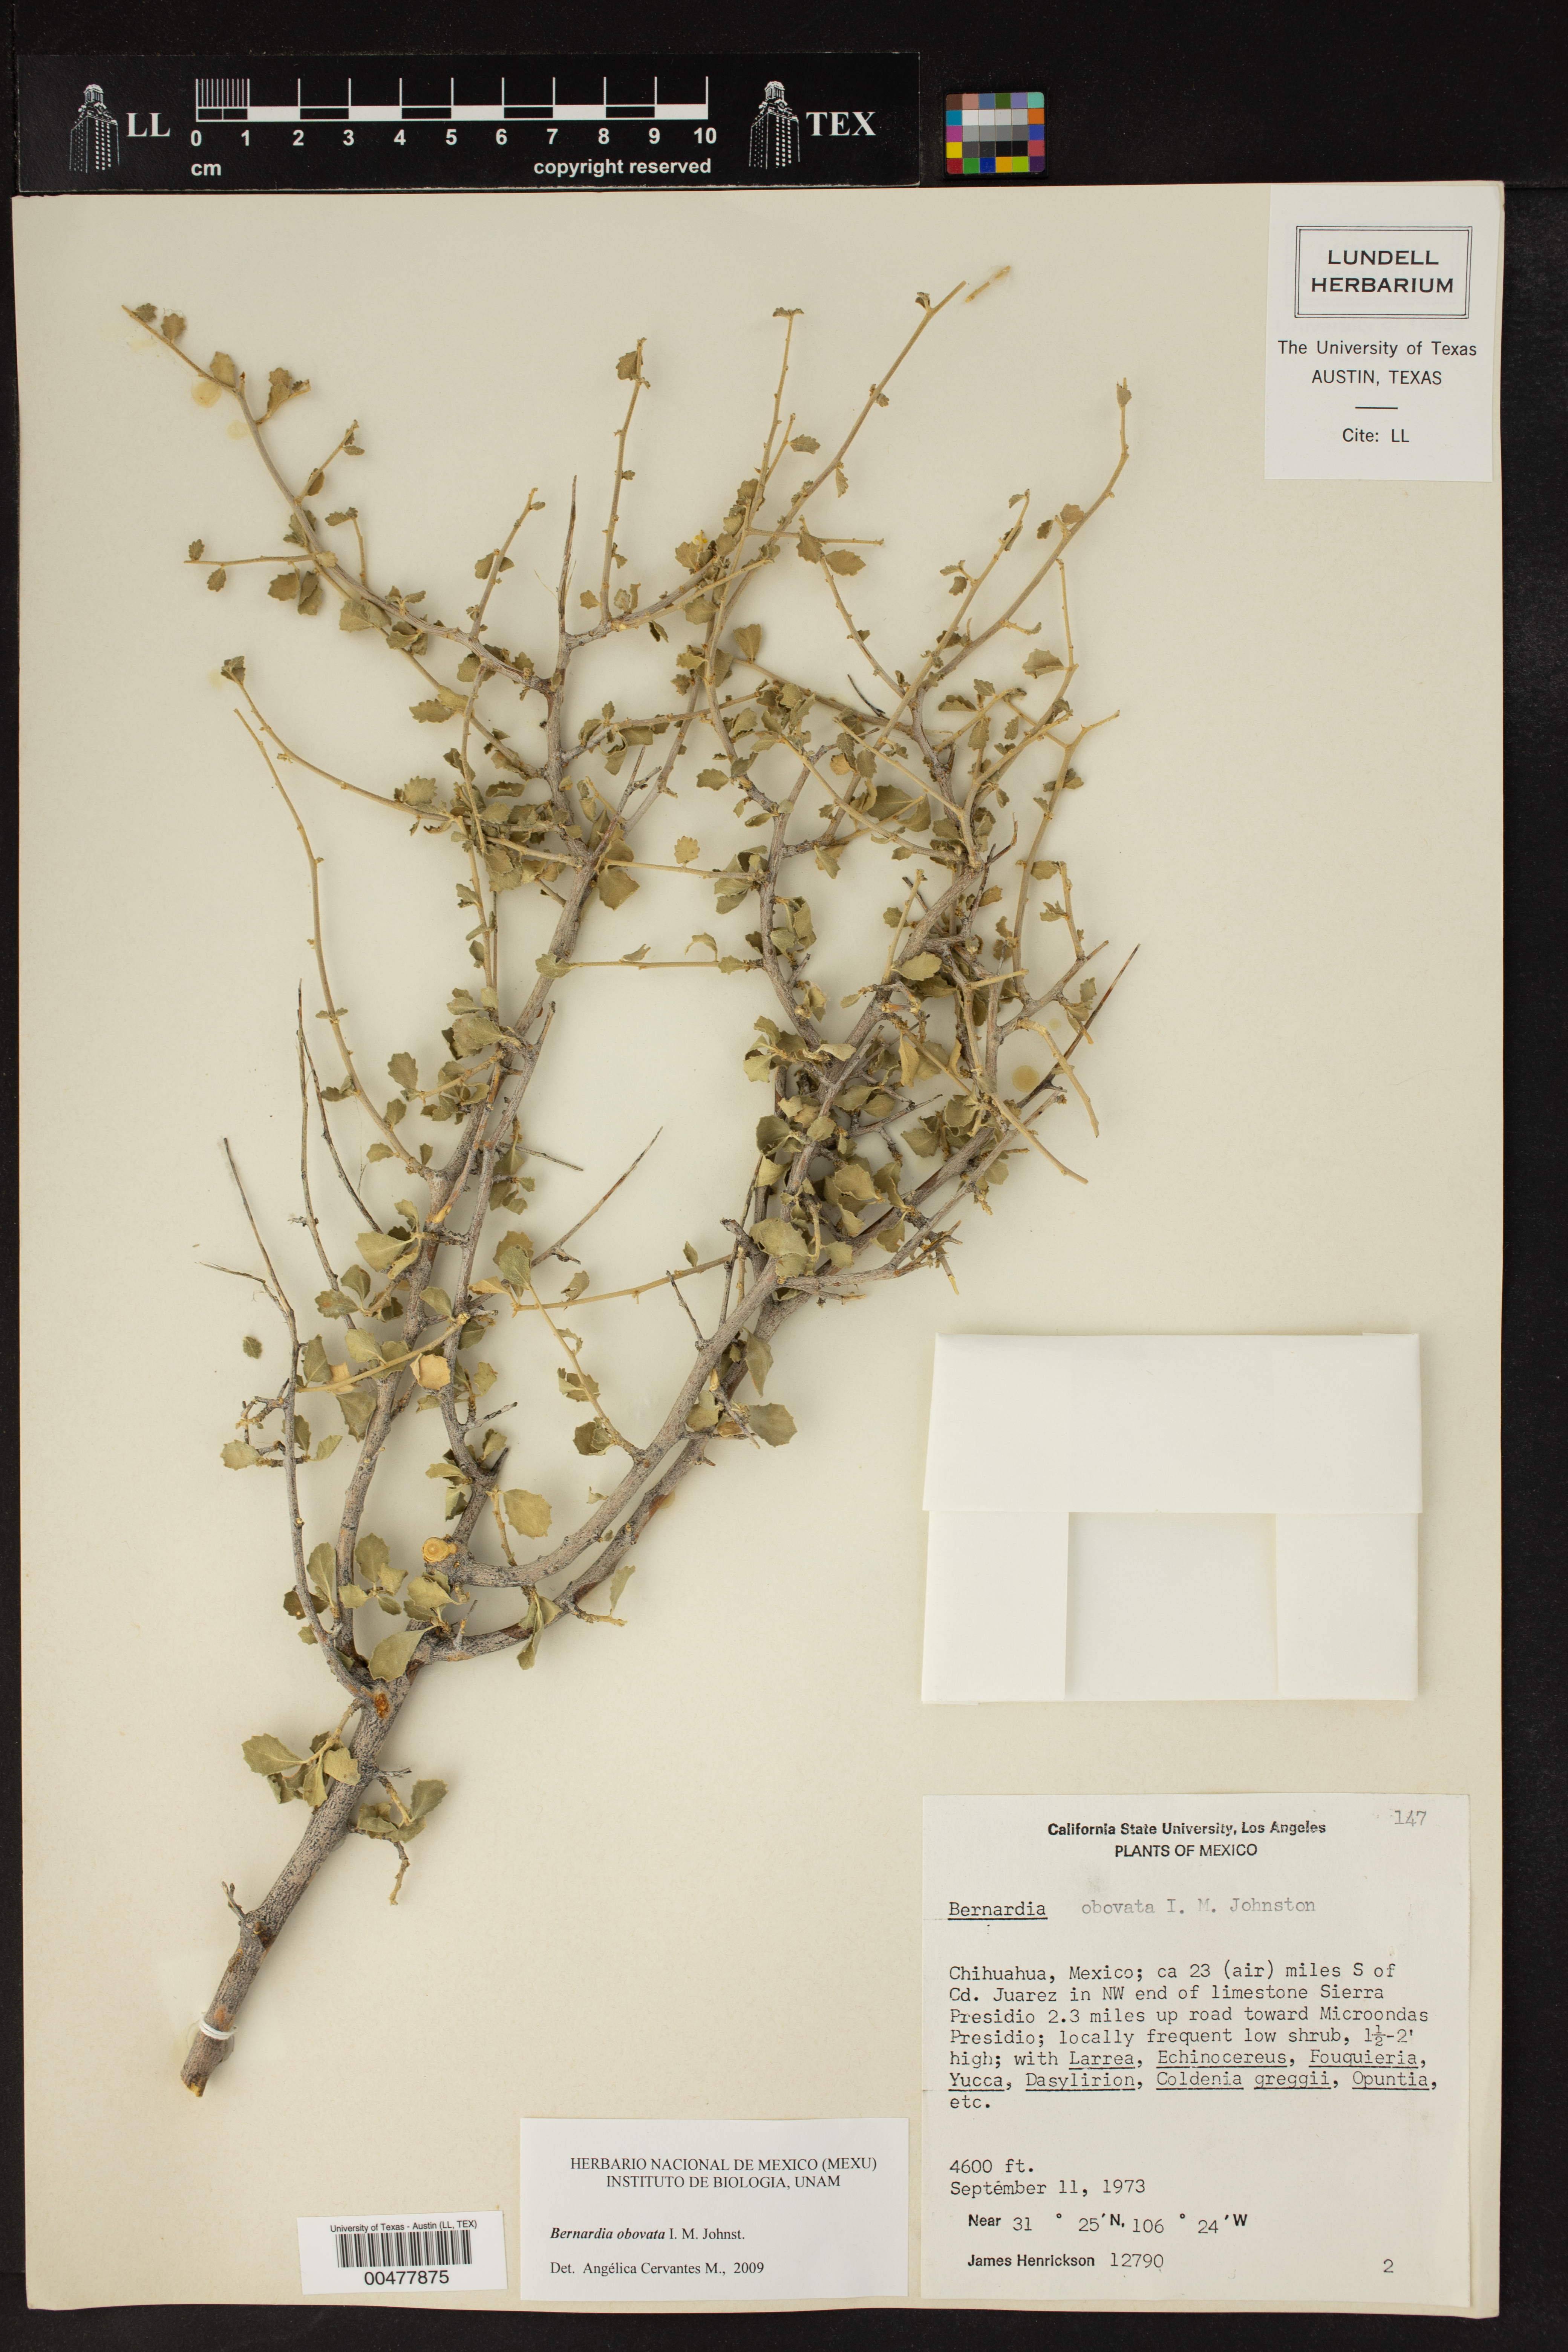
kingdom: Plantae
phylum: Tracheophyta
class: Magnoliopsida
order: Malpighiales
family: Euphorbiaceae
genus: Bernardia
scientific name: Bernardia obovata
